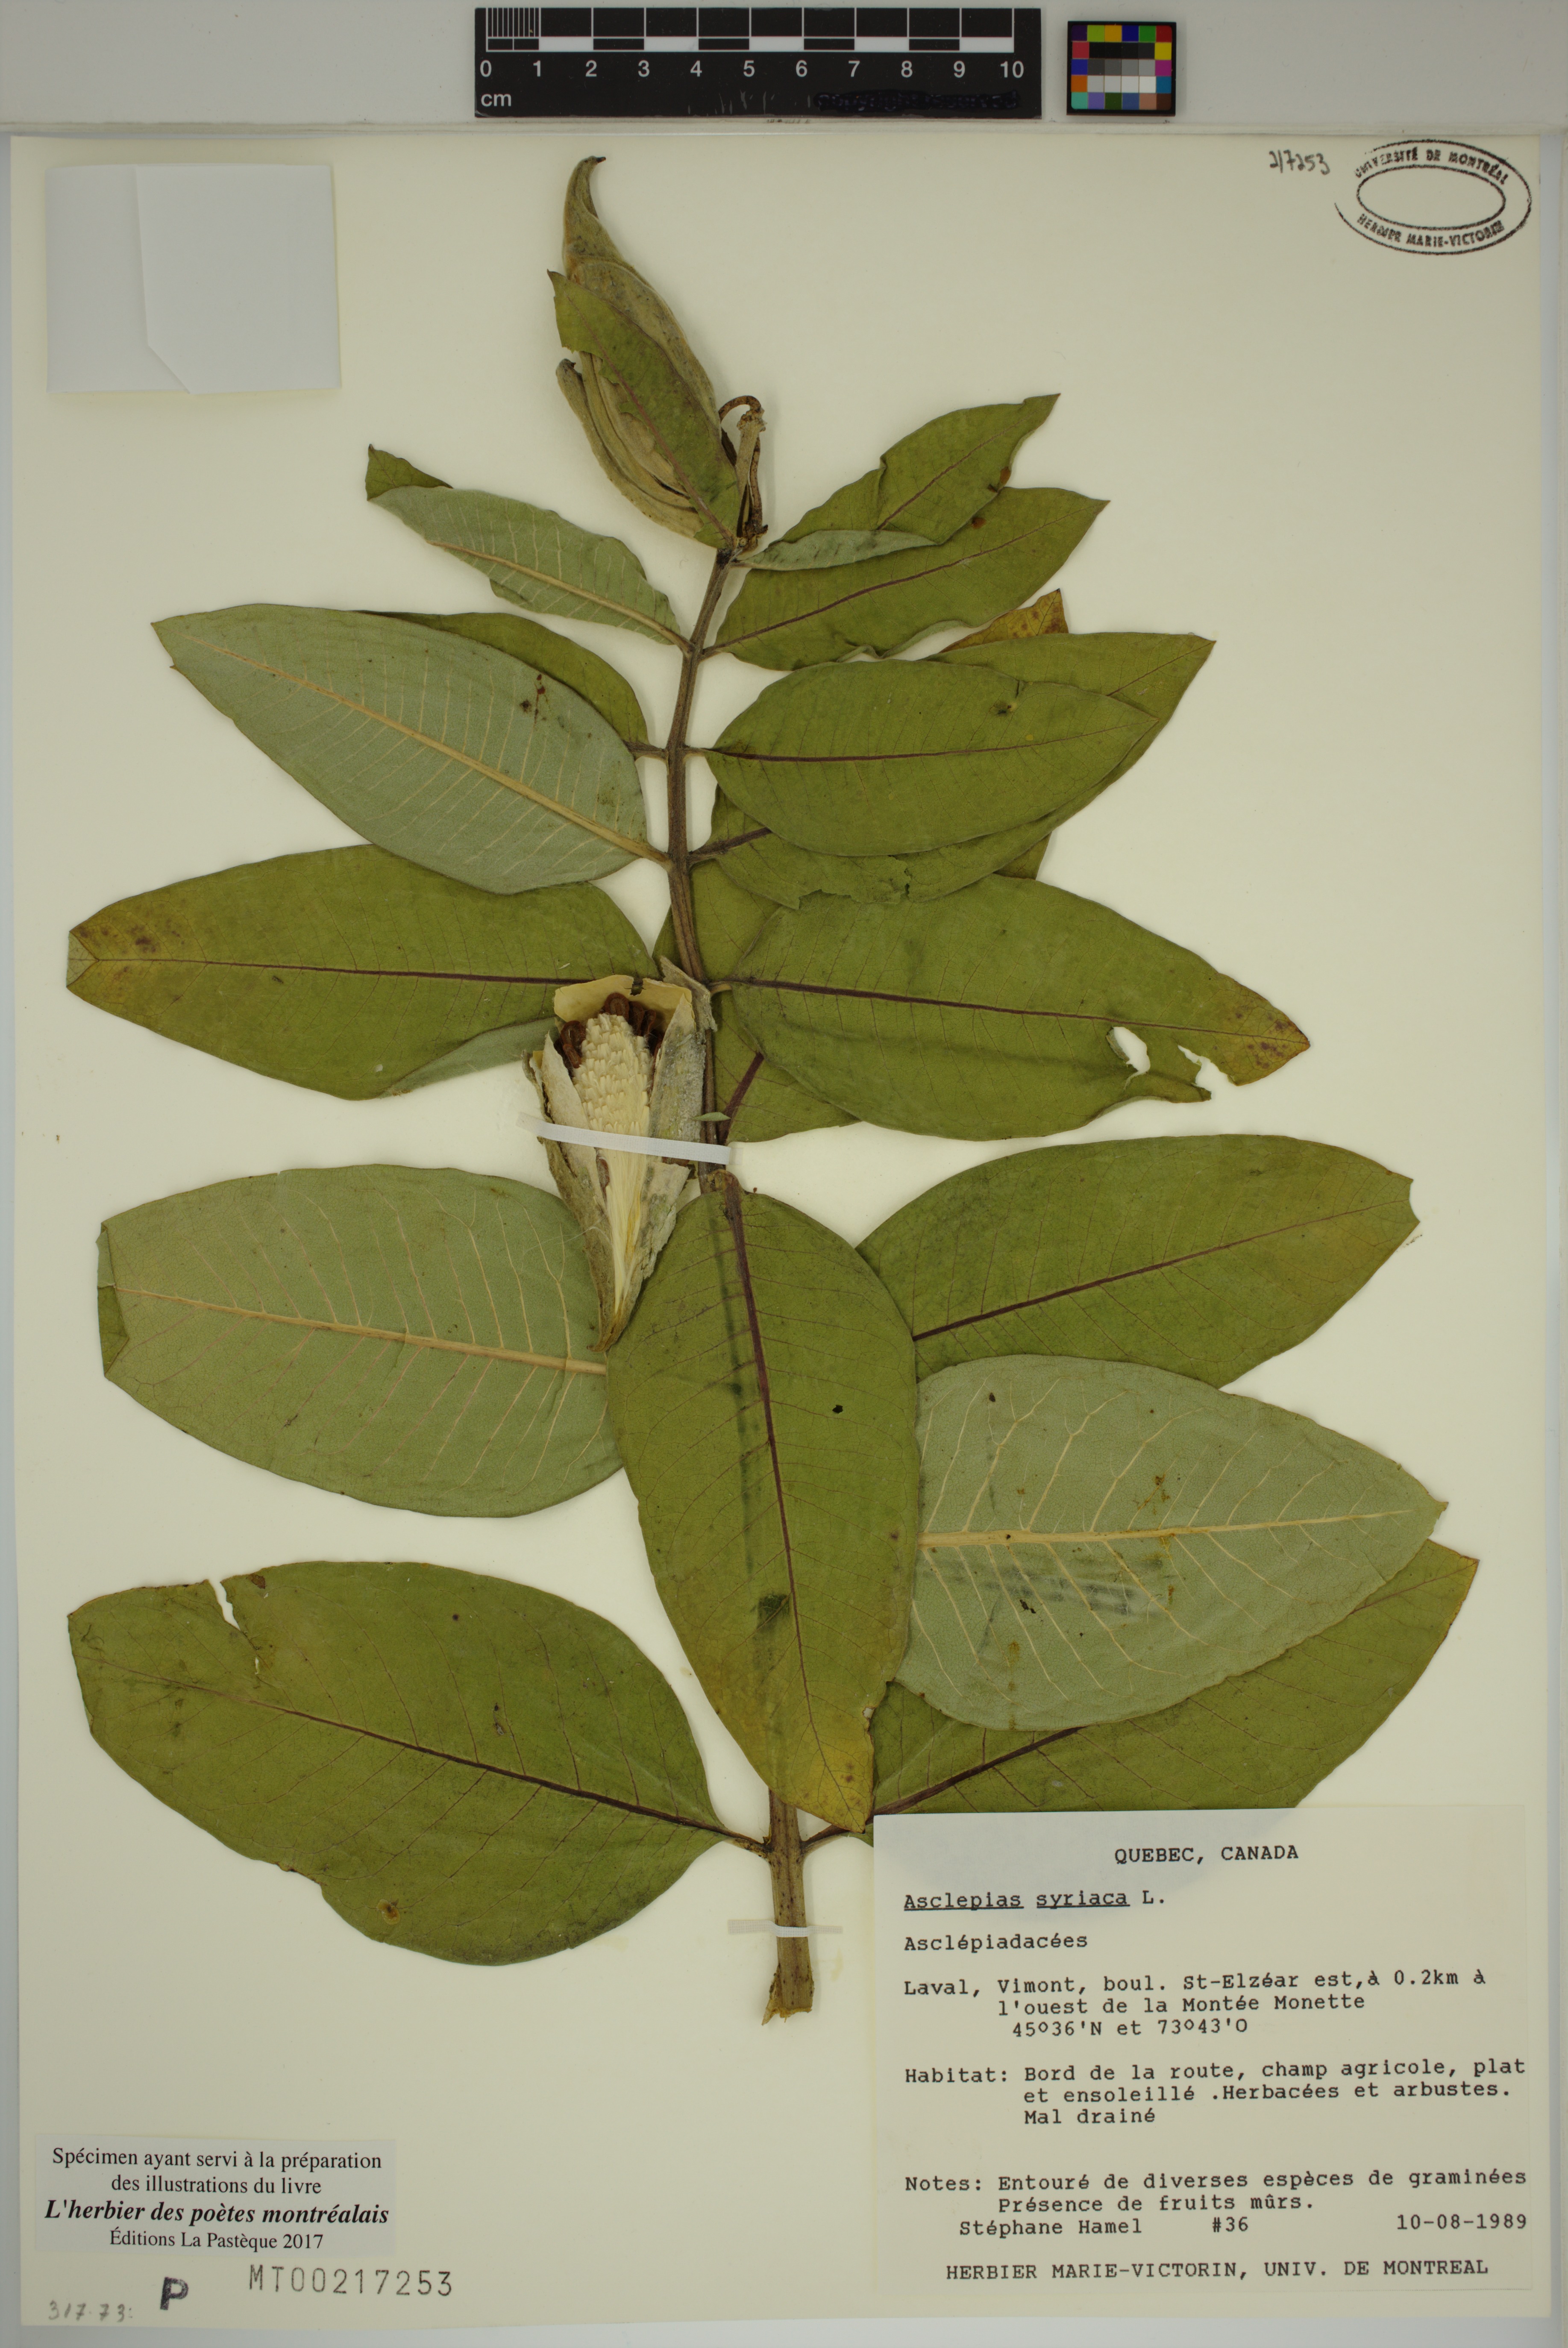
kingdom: Plantae
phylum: Tracheophyta
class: Magnoliopsida
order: Gentianales
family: Apocynaceae
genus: Asclepias
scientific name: Asclepias syriaca
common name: Common milkweed
